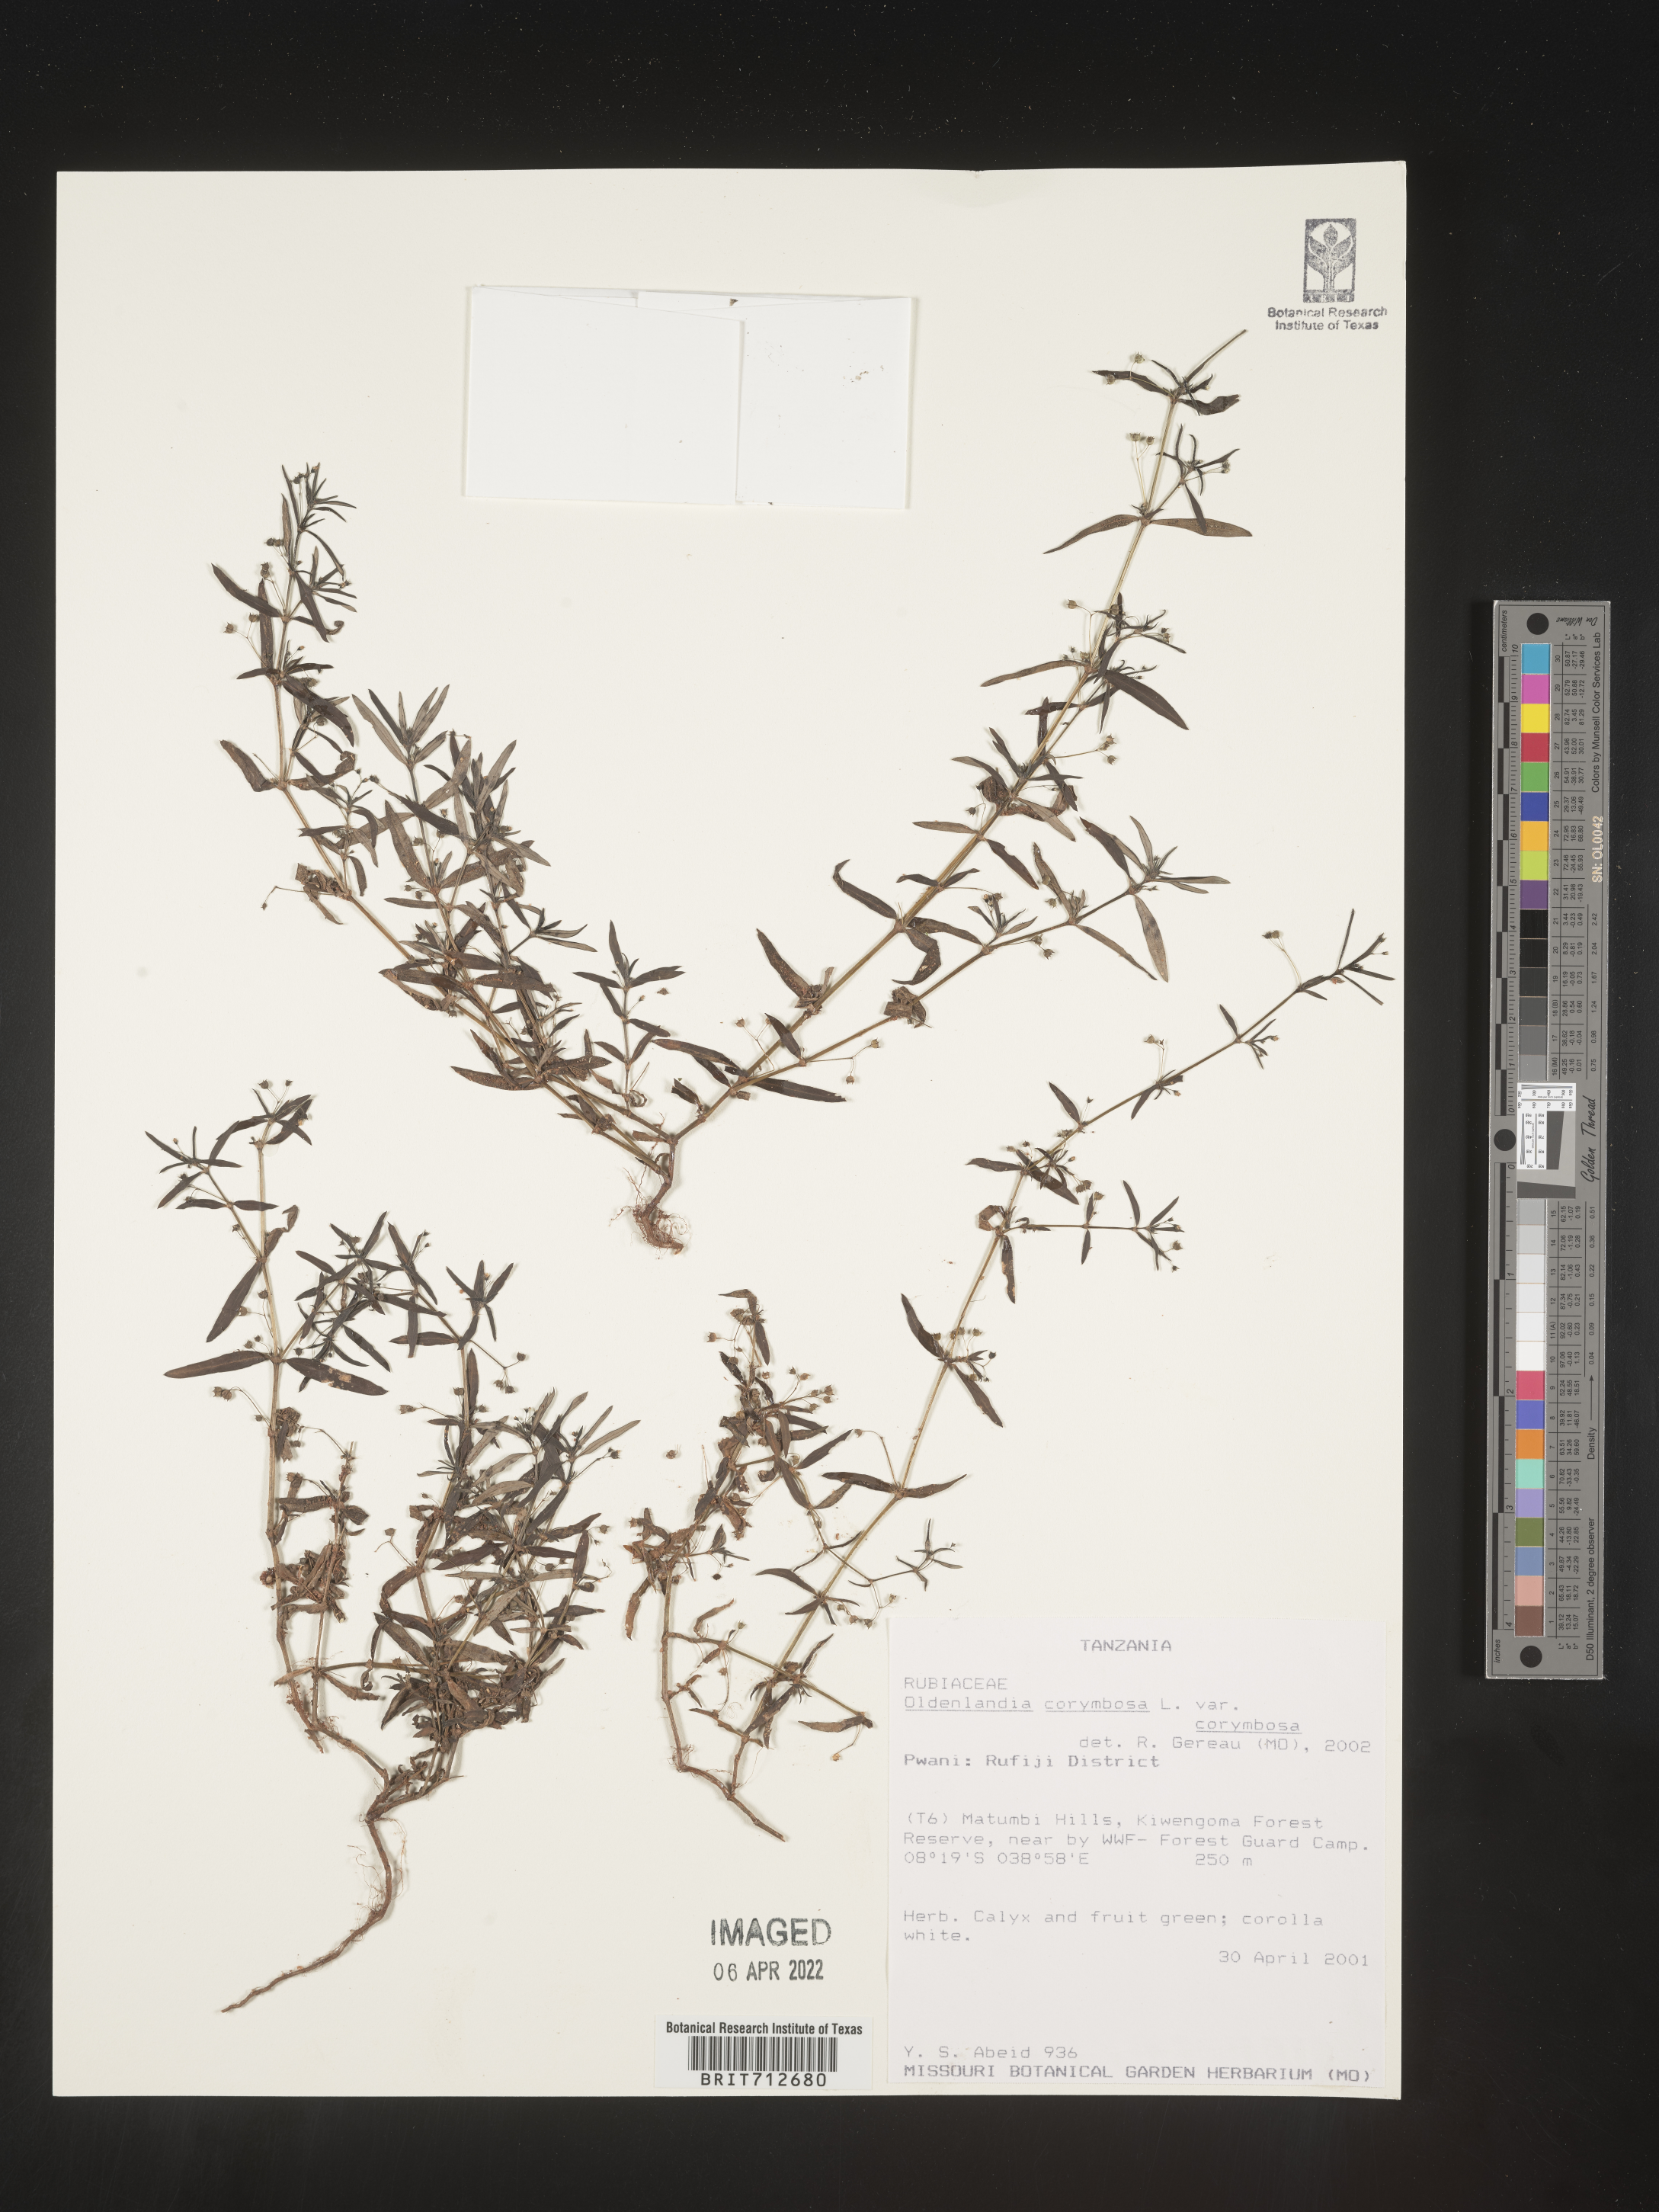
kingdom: Plantae
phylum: Tracheophyta
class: Magnoliopsida
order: Gentianales
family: Rubiaceae
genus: Oldenlandia
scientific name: Oldenlandia
